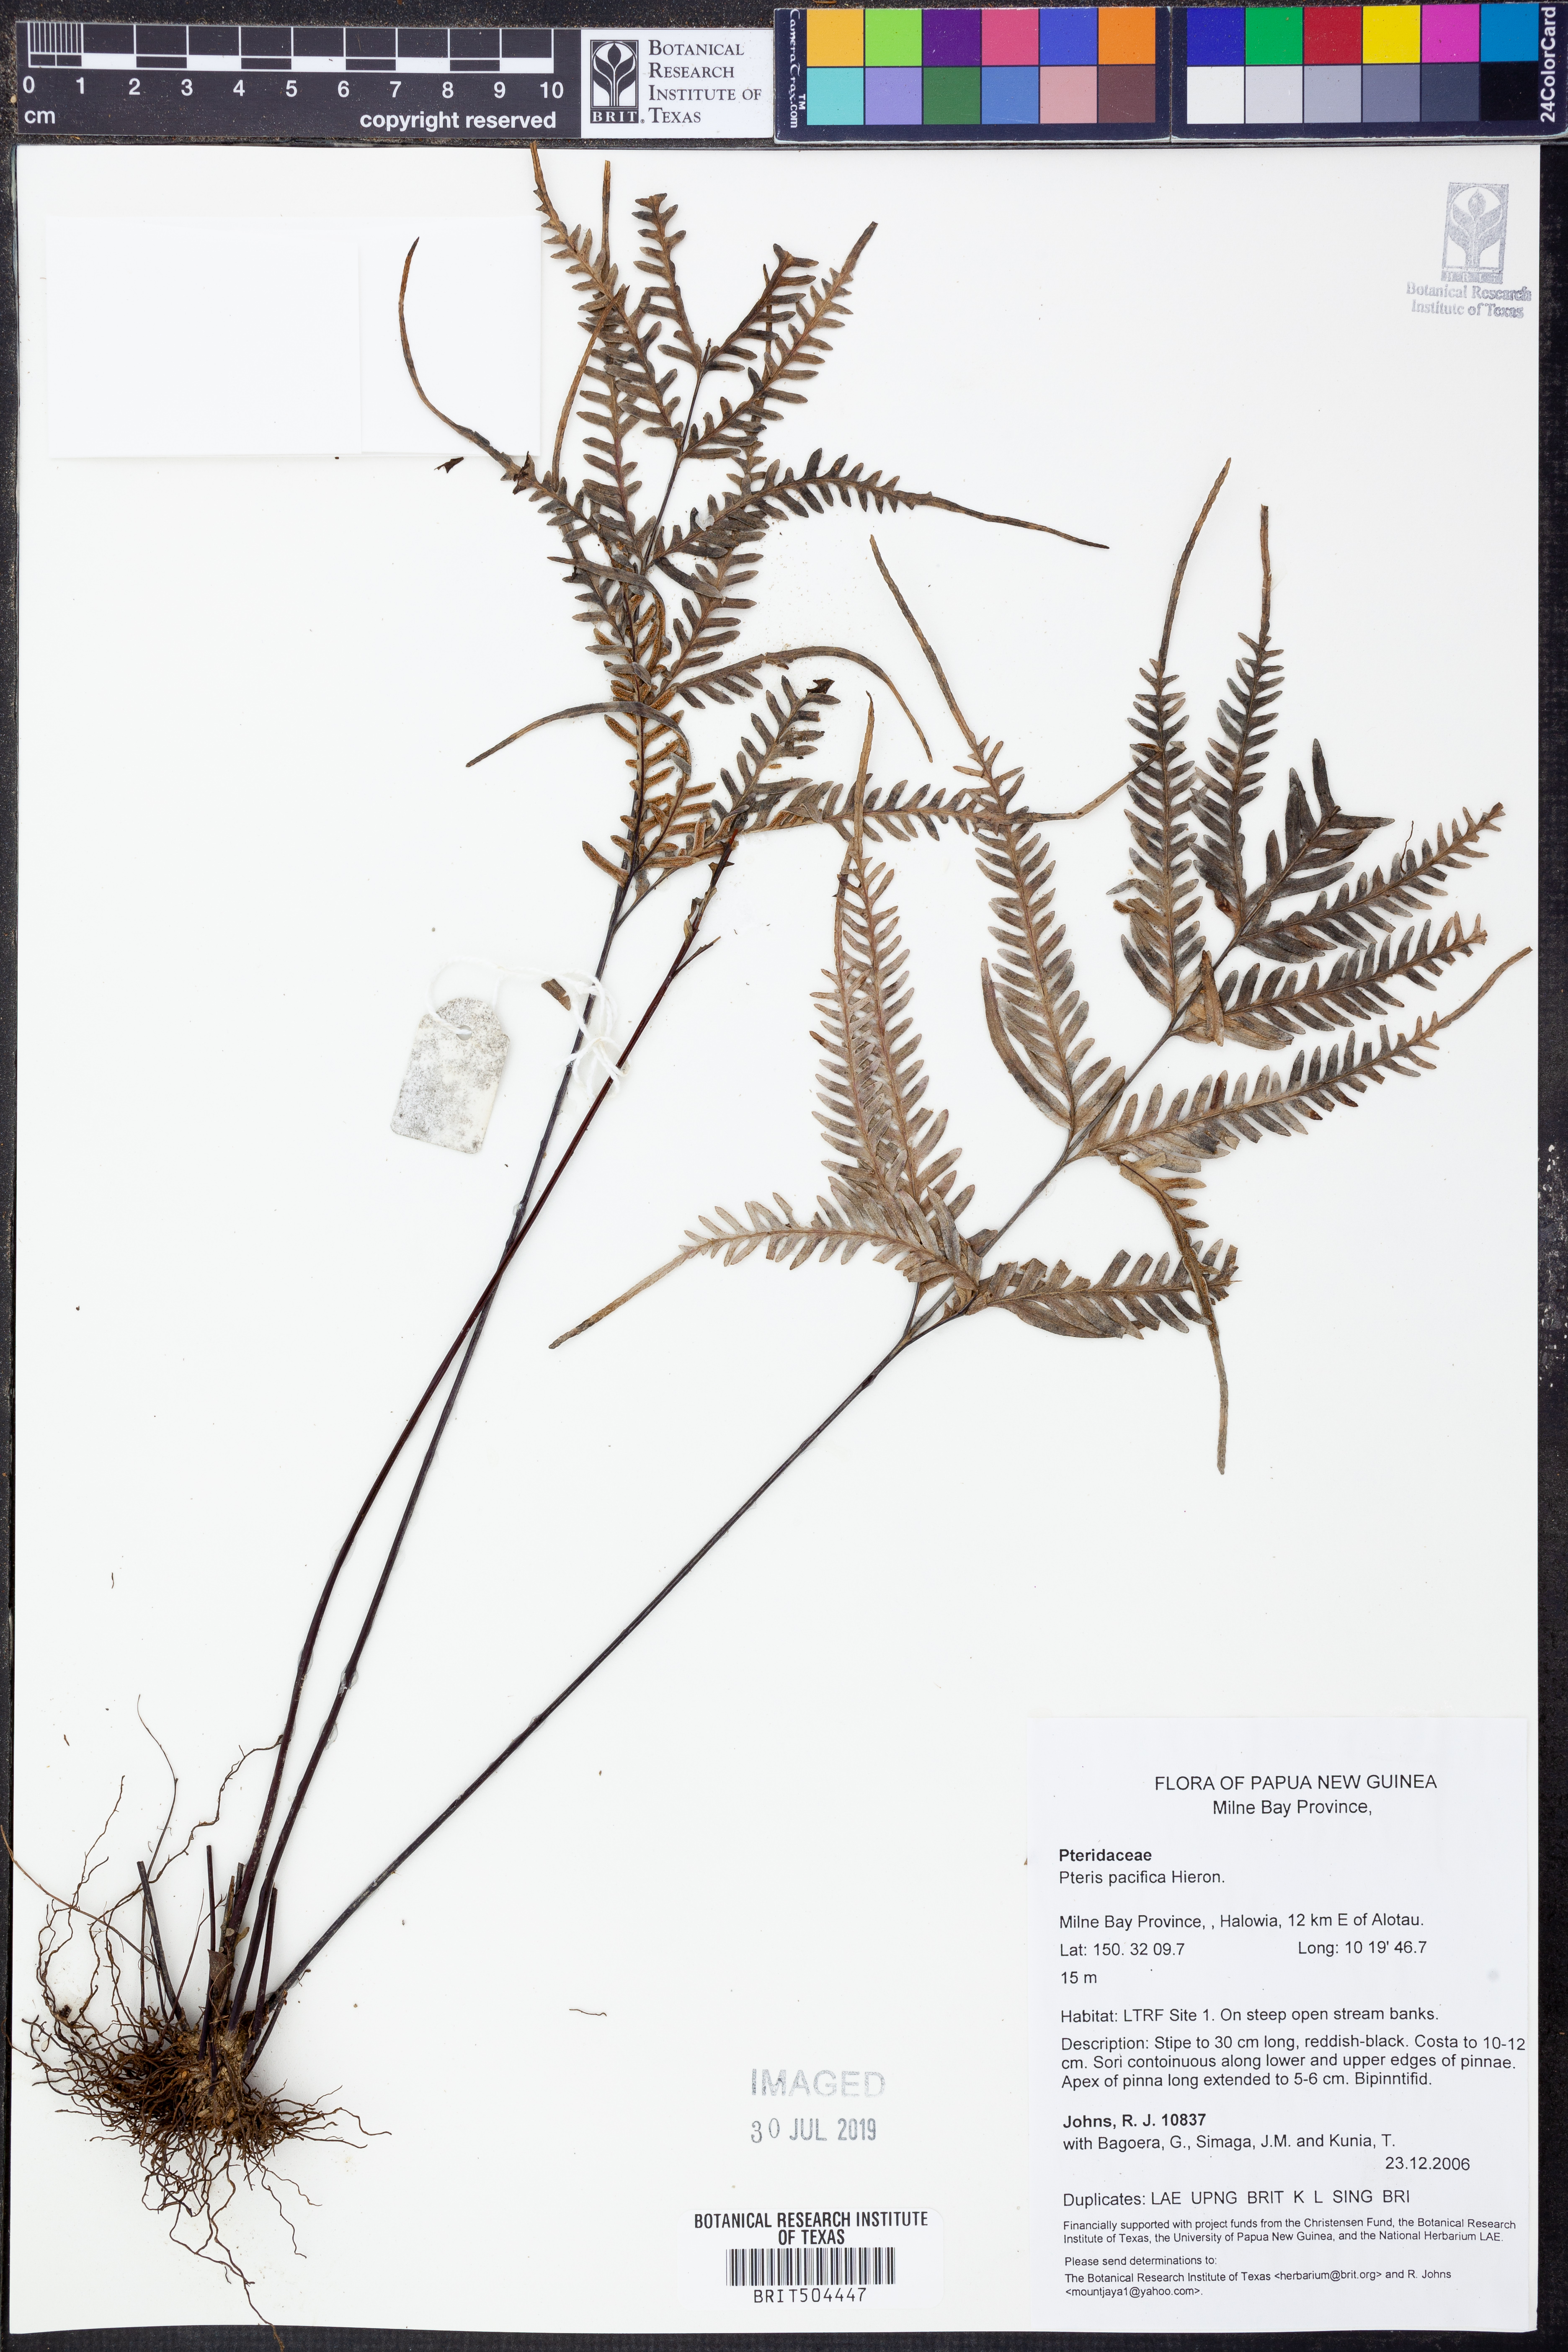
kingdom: Plantae
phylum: Tracheophyta
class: Polypodiopsida
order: Polypodiales
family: Pteridaceae
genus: Pteris
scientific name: Pteris biaurita
